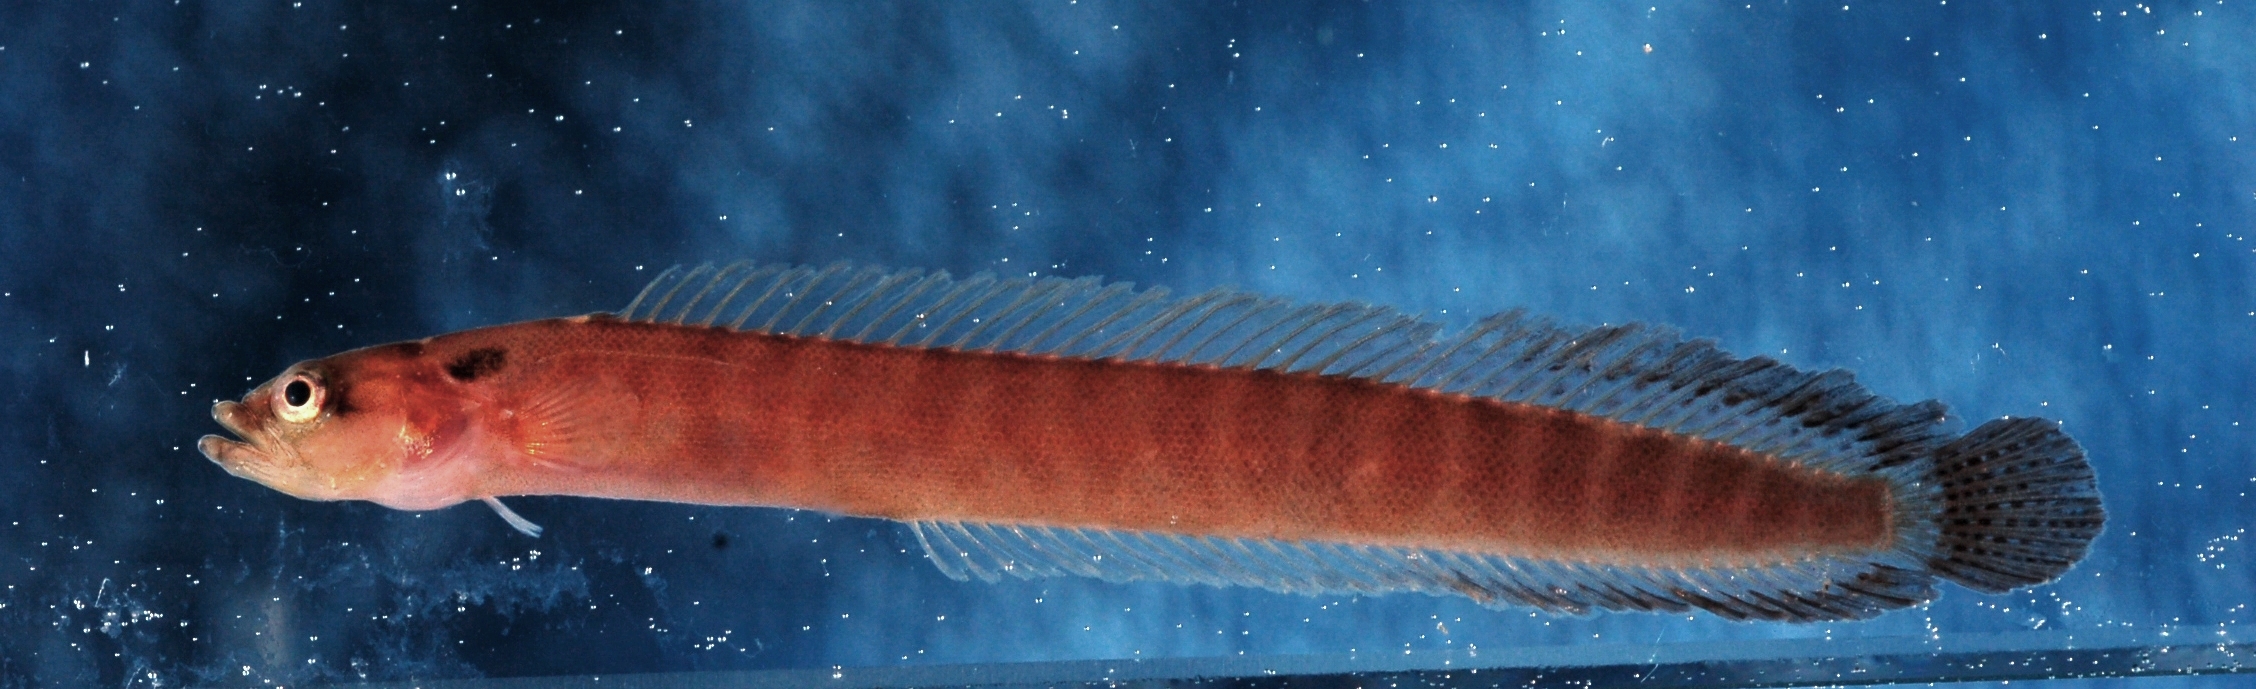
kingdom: Animalia
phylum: Chordata
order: Perciformes
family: Pseudochromidae
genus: Natalichthys
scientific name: Natalichthys sam
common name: Nail snakelet
